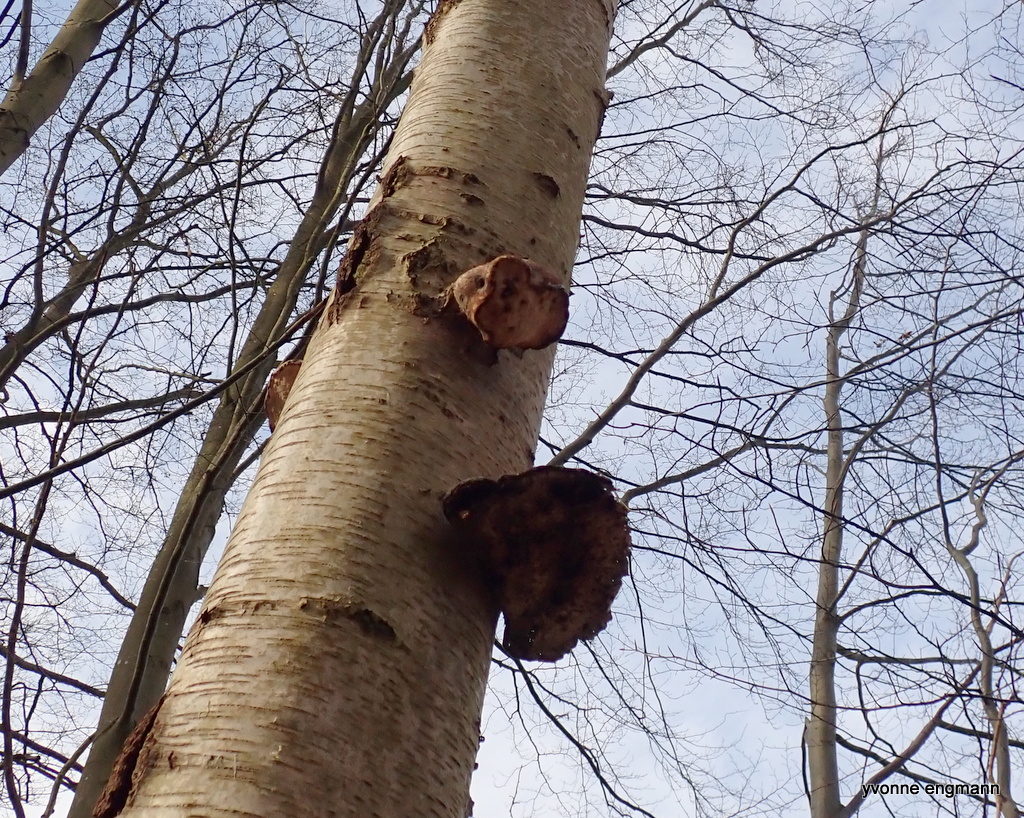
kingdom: Fungi
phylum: Basidiomycota
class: Agaricomycetes
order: Polyporales
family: Fomitopsidaceae
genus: Fomitopsis
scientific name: Fomitopsis betulina
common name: birkeporesvamp
